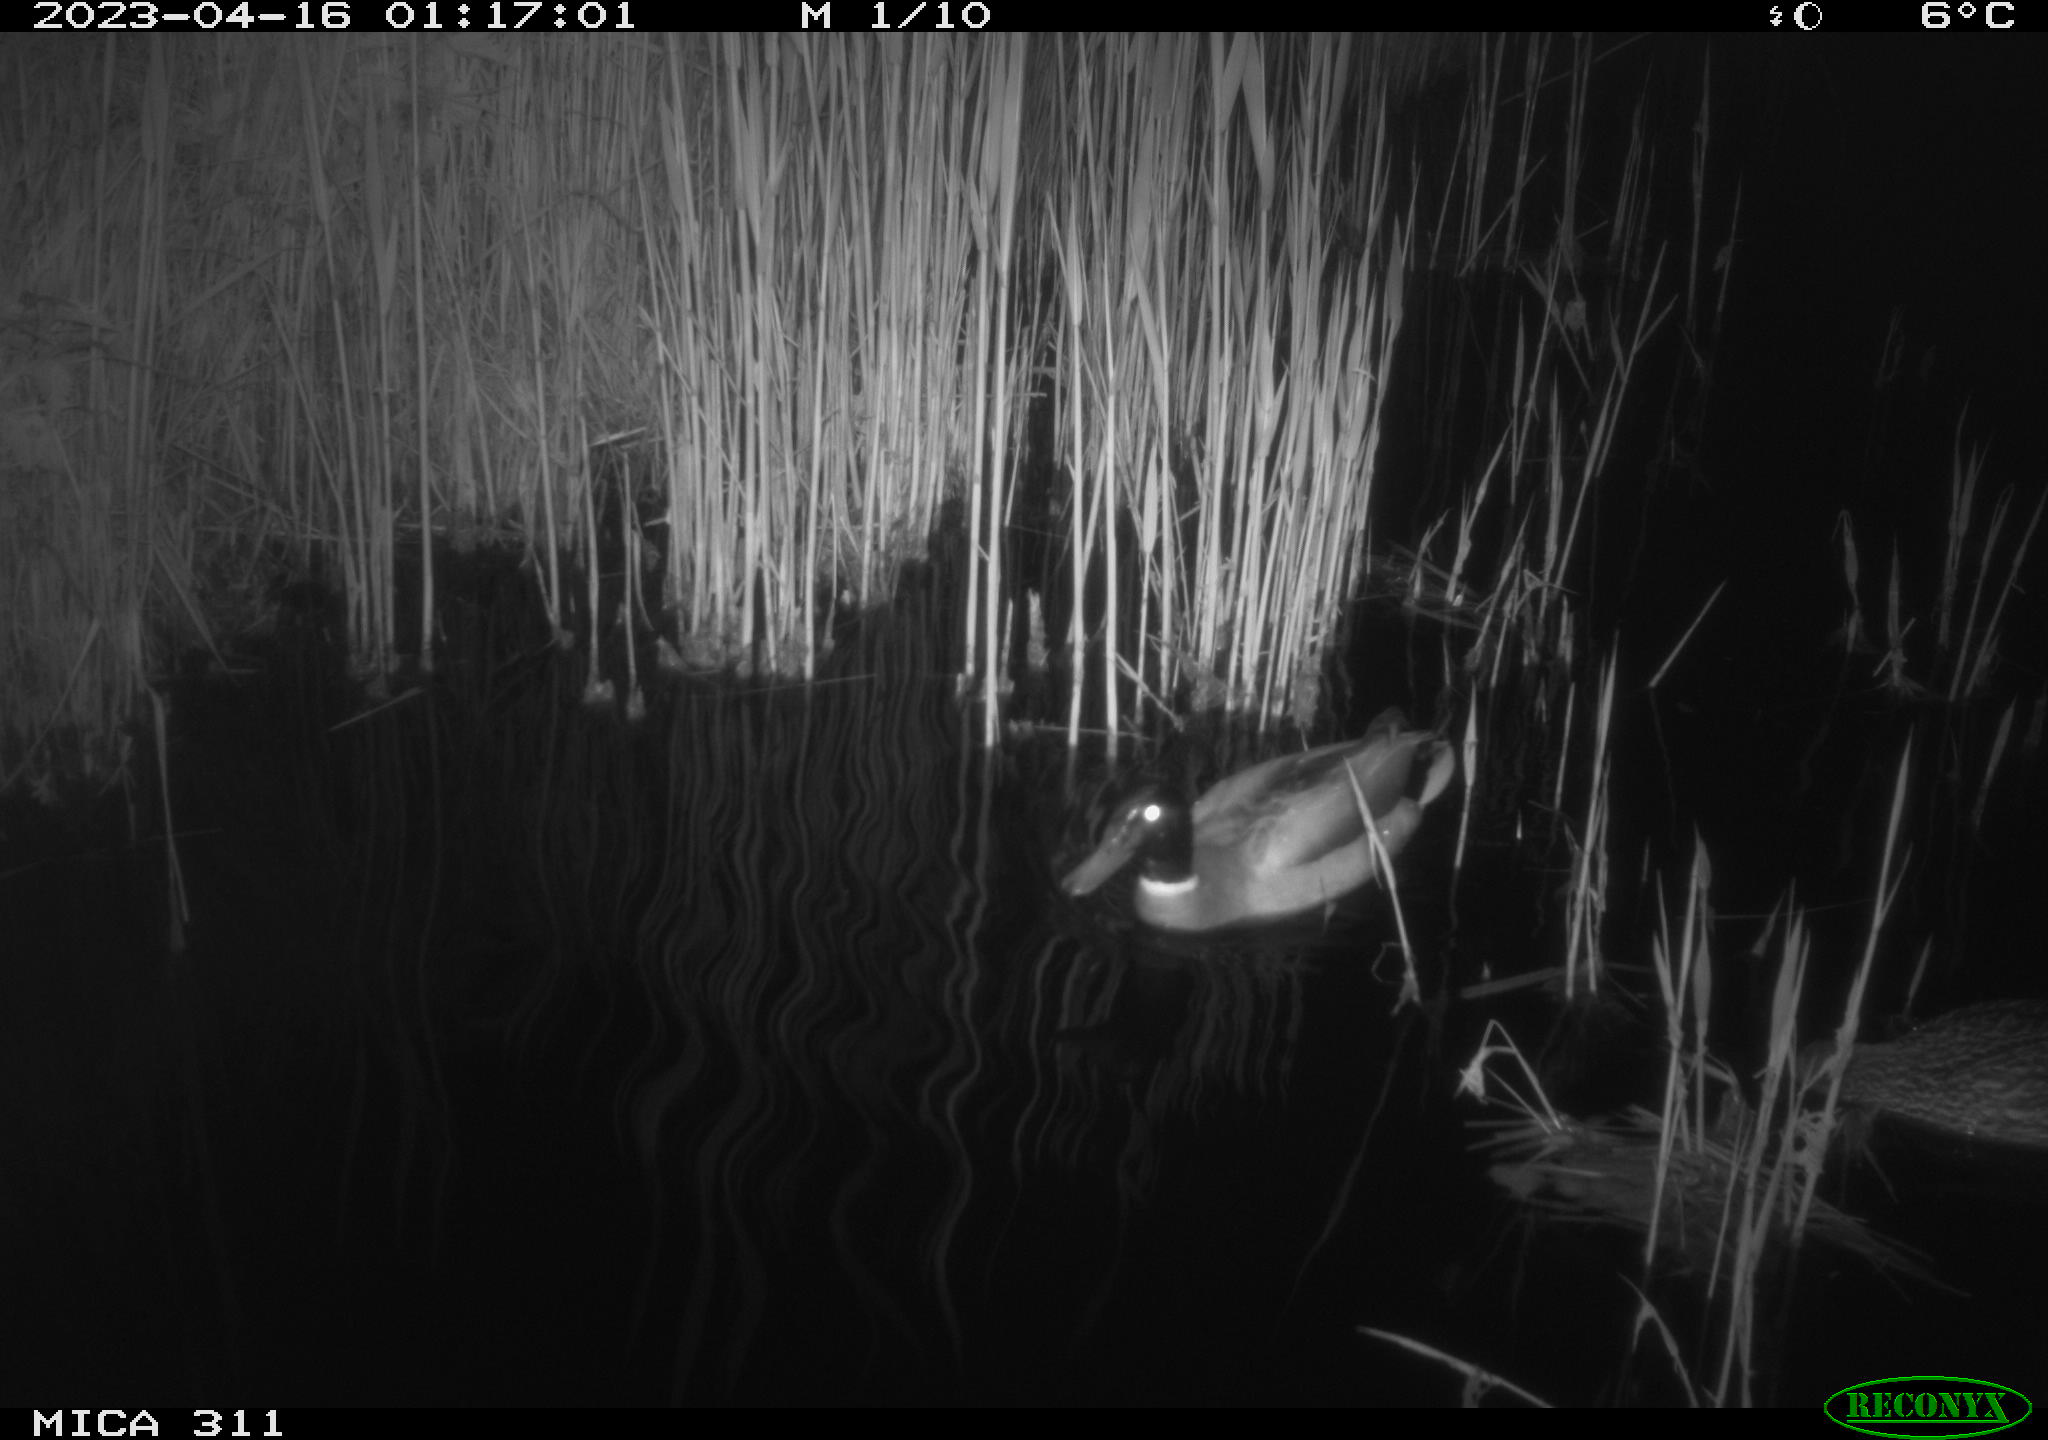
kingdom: Animalia
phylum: Chordata
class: Aves
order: Anseriformes
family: Anatidae
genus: Anas
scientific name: Anas
